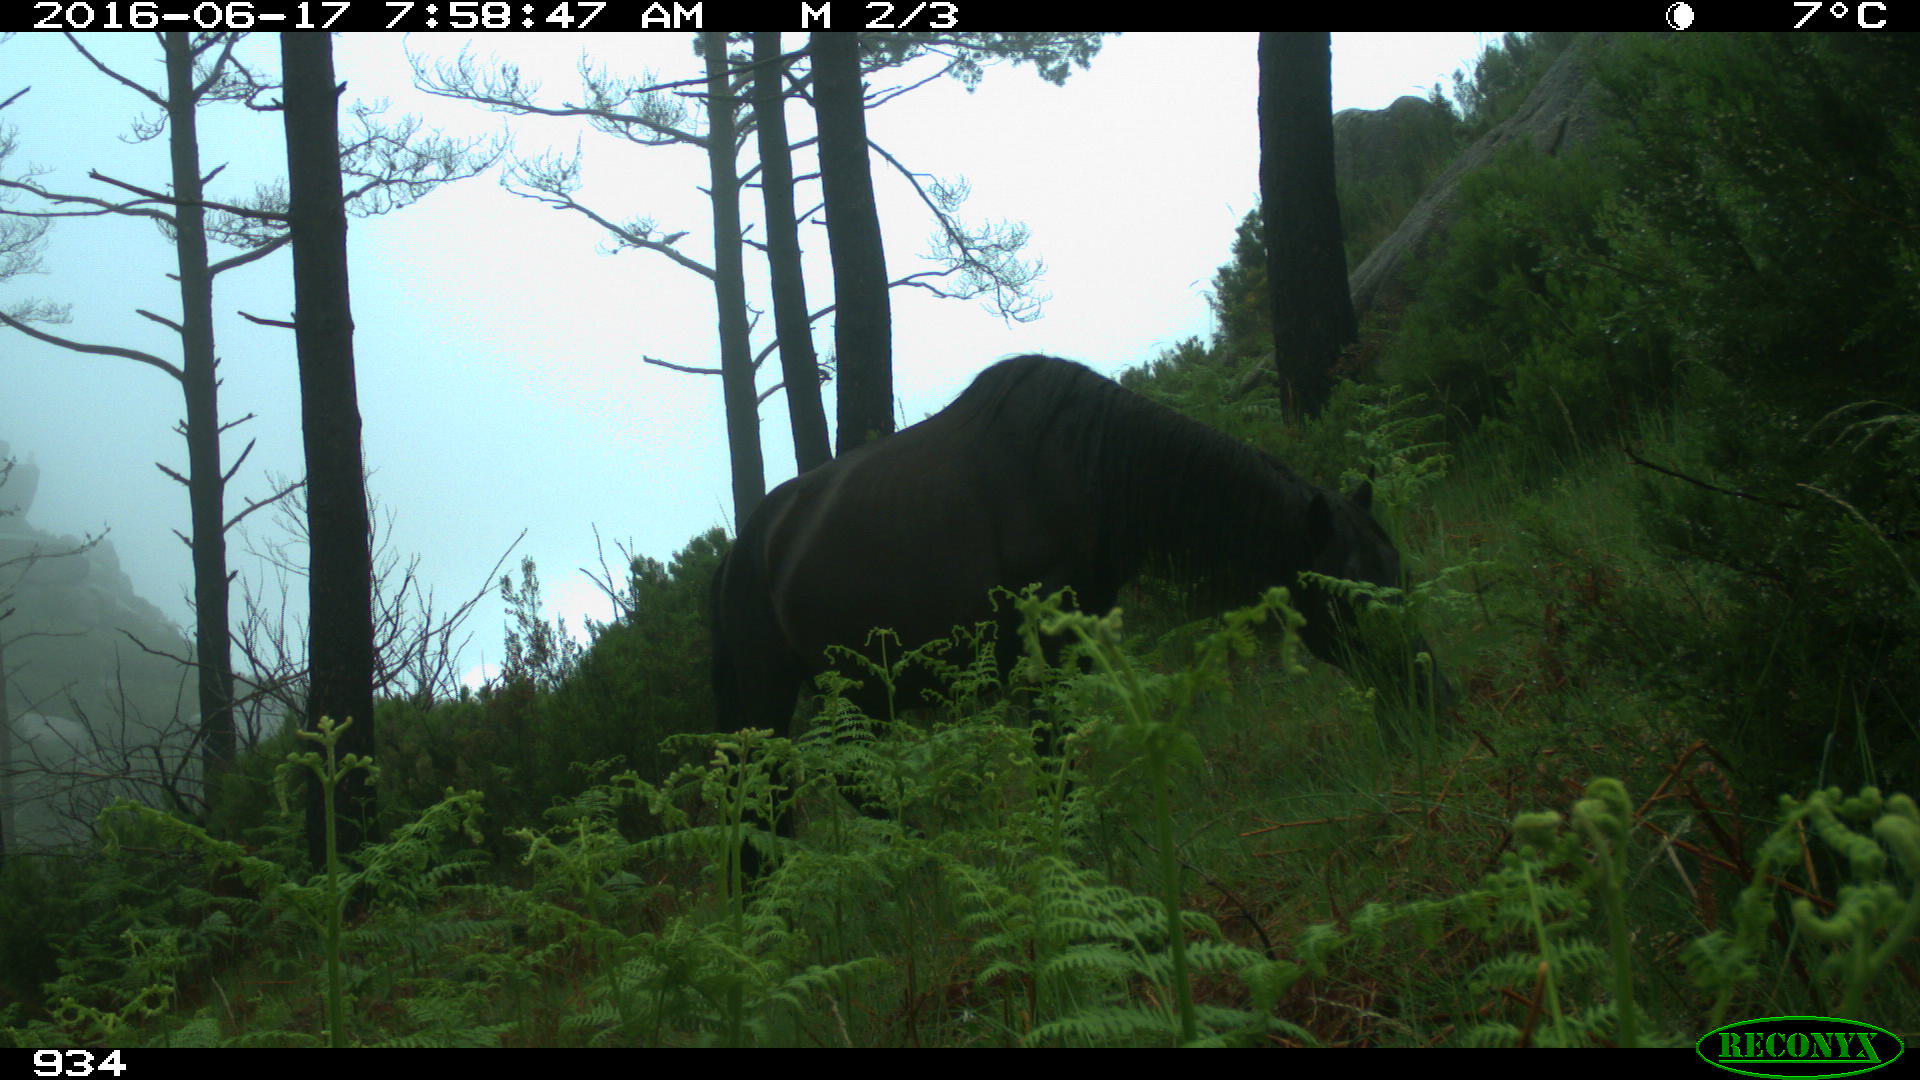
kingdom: Animalia
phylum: Chordata
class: Mammalia
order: Perissodactyla
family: Equidae
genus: Equus
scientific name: Equus caballus
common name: Horse
